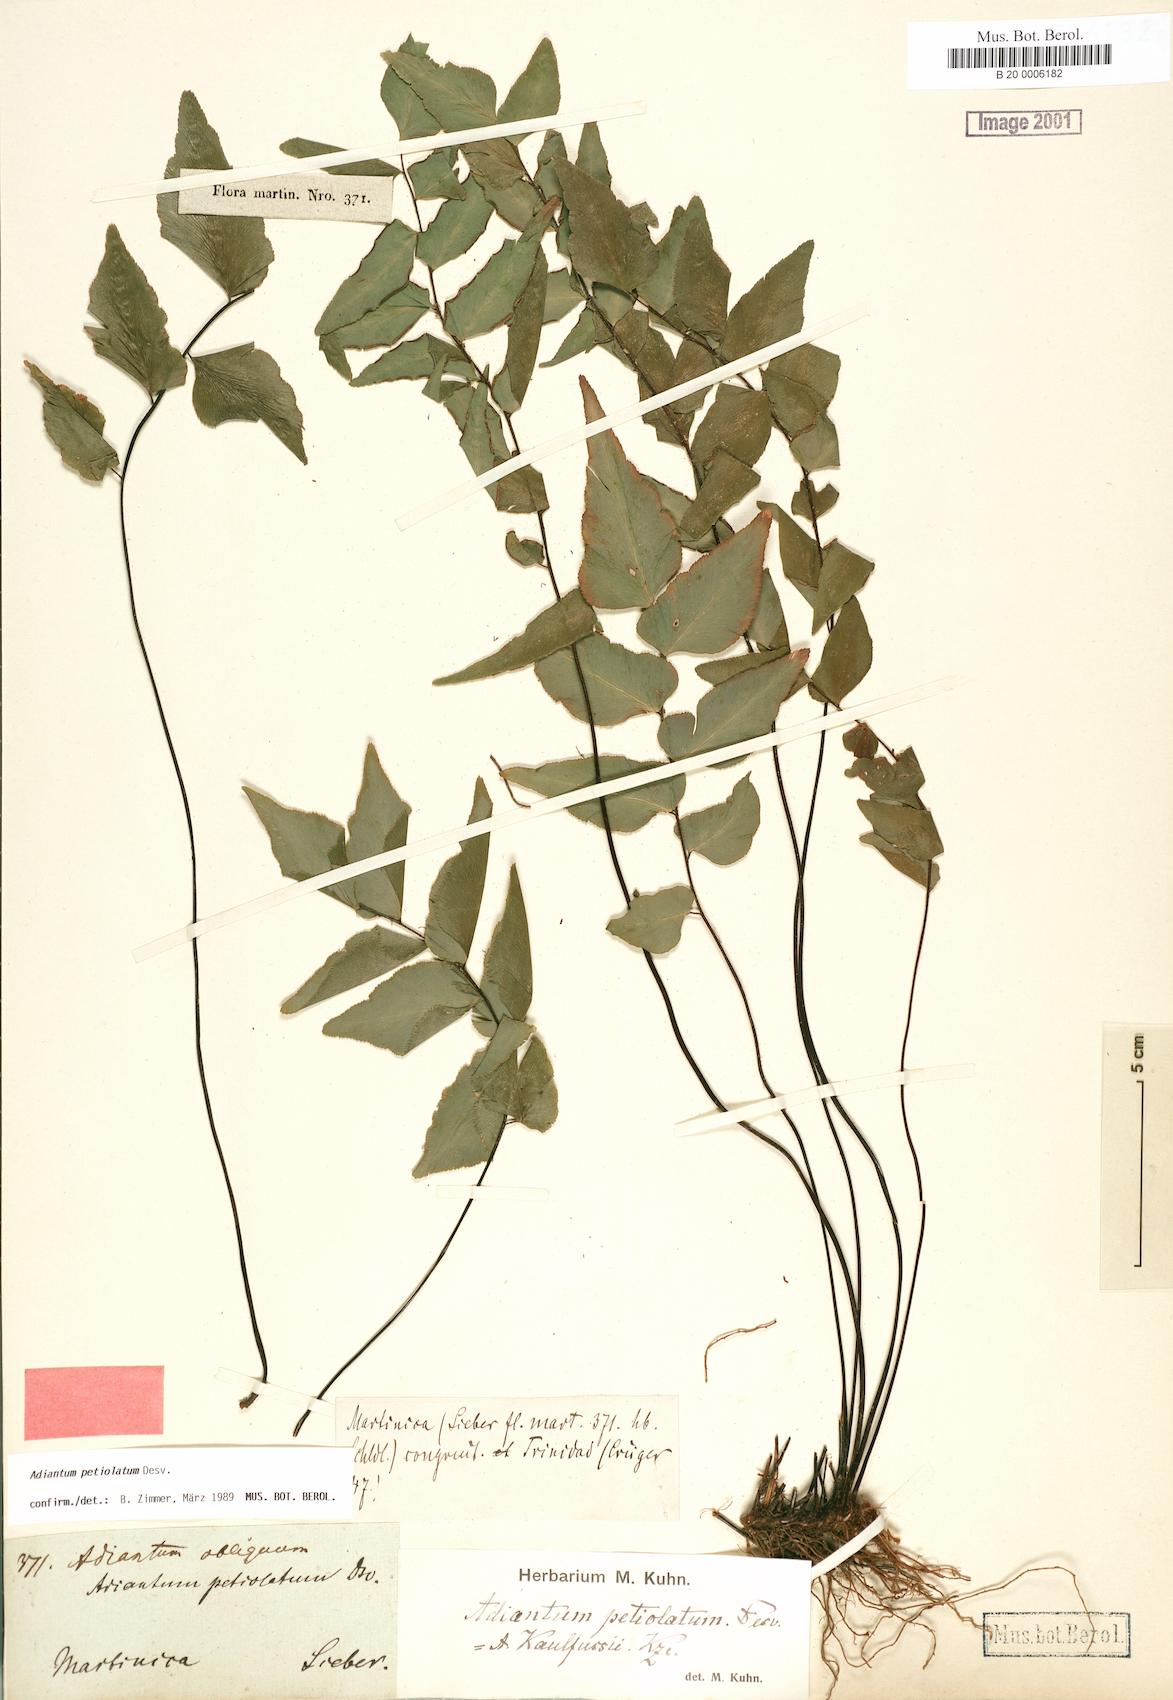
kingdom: Plantae
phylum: Tracheophyta
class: Polypodiopsida
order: Polypodiales
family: Pteridaceae
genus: Adiantum
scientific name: Adiantum petiolatum
